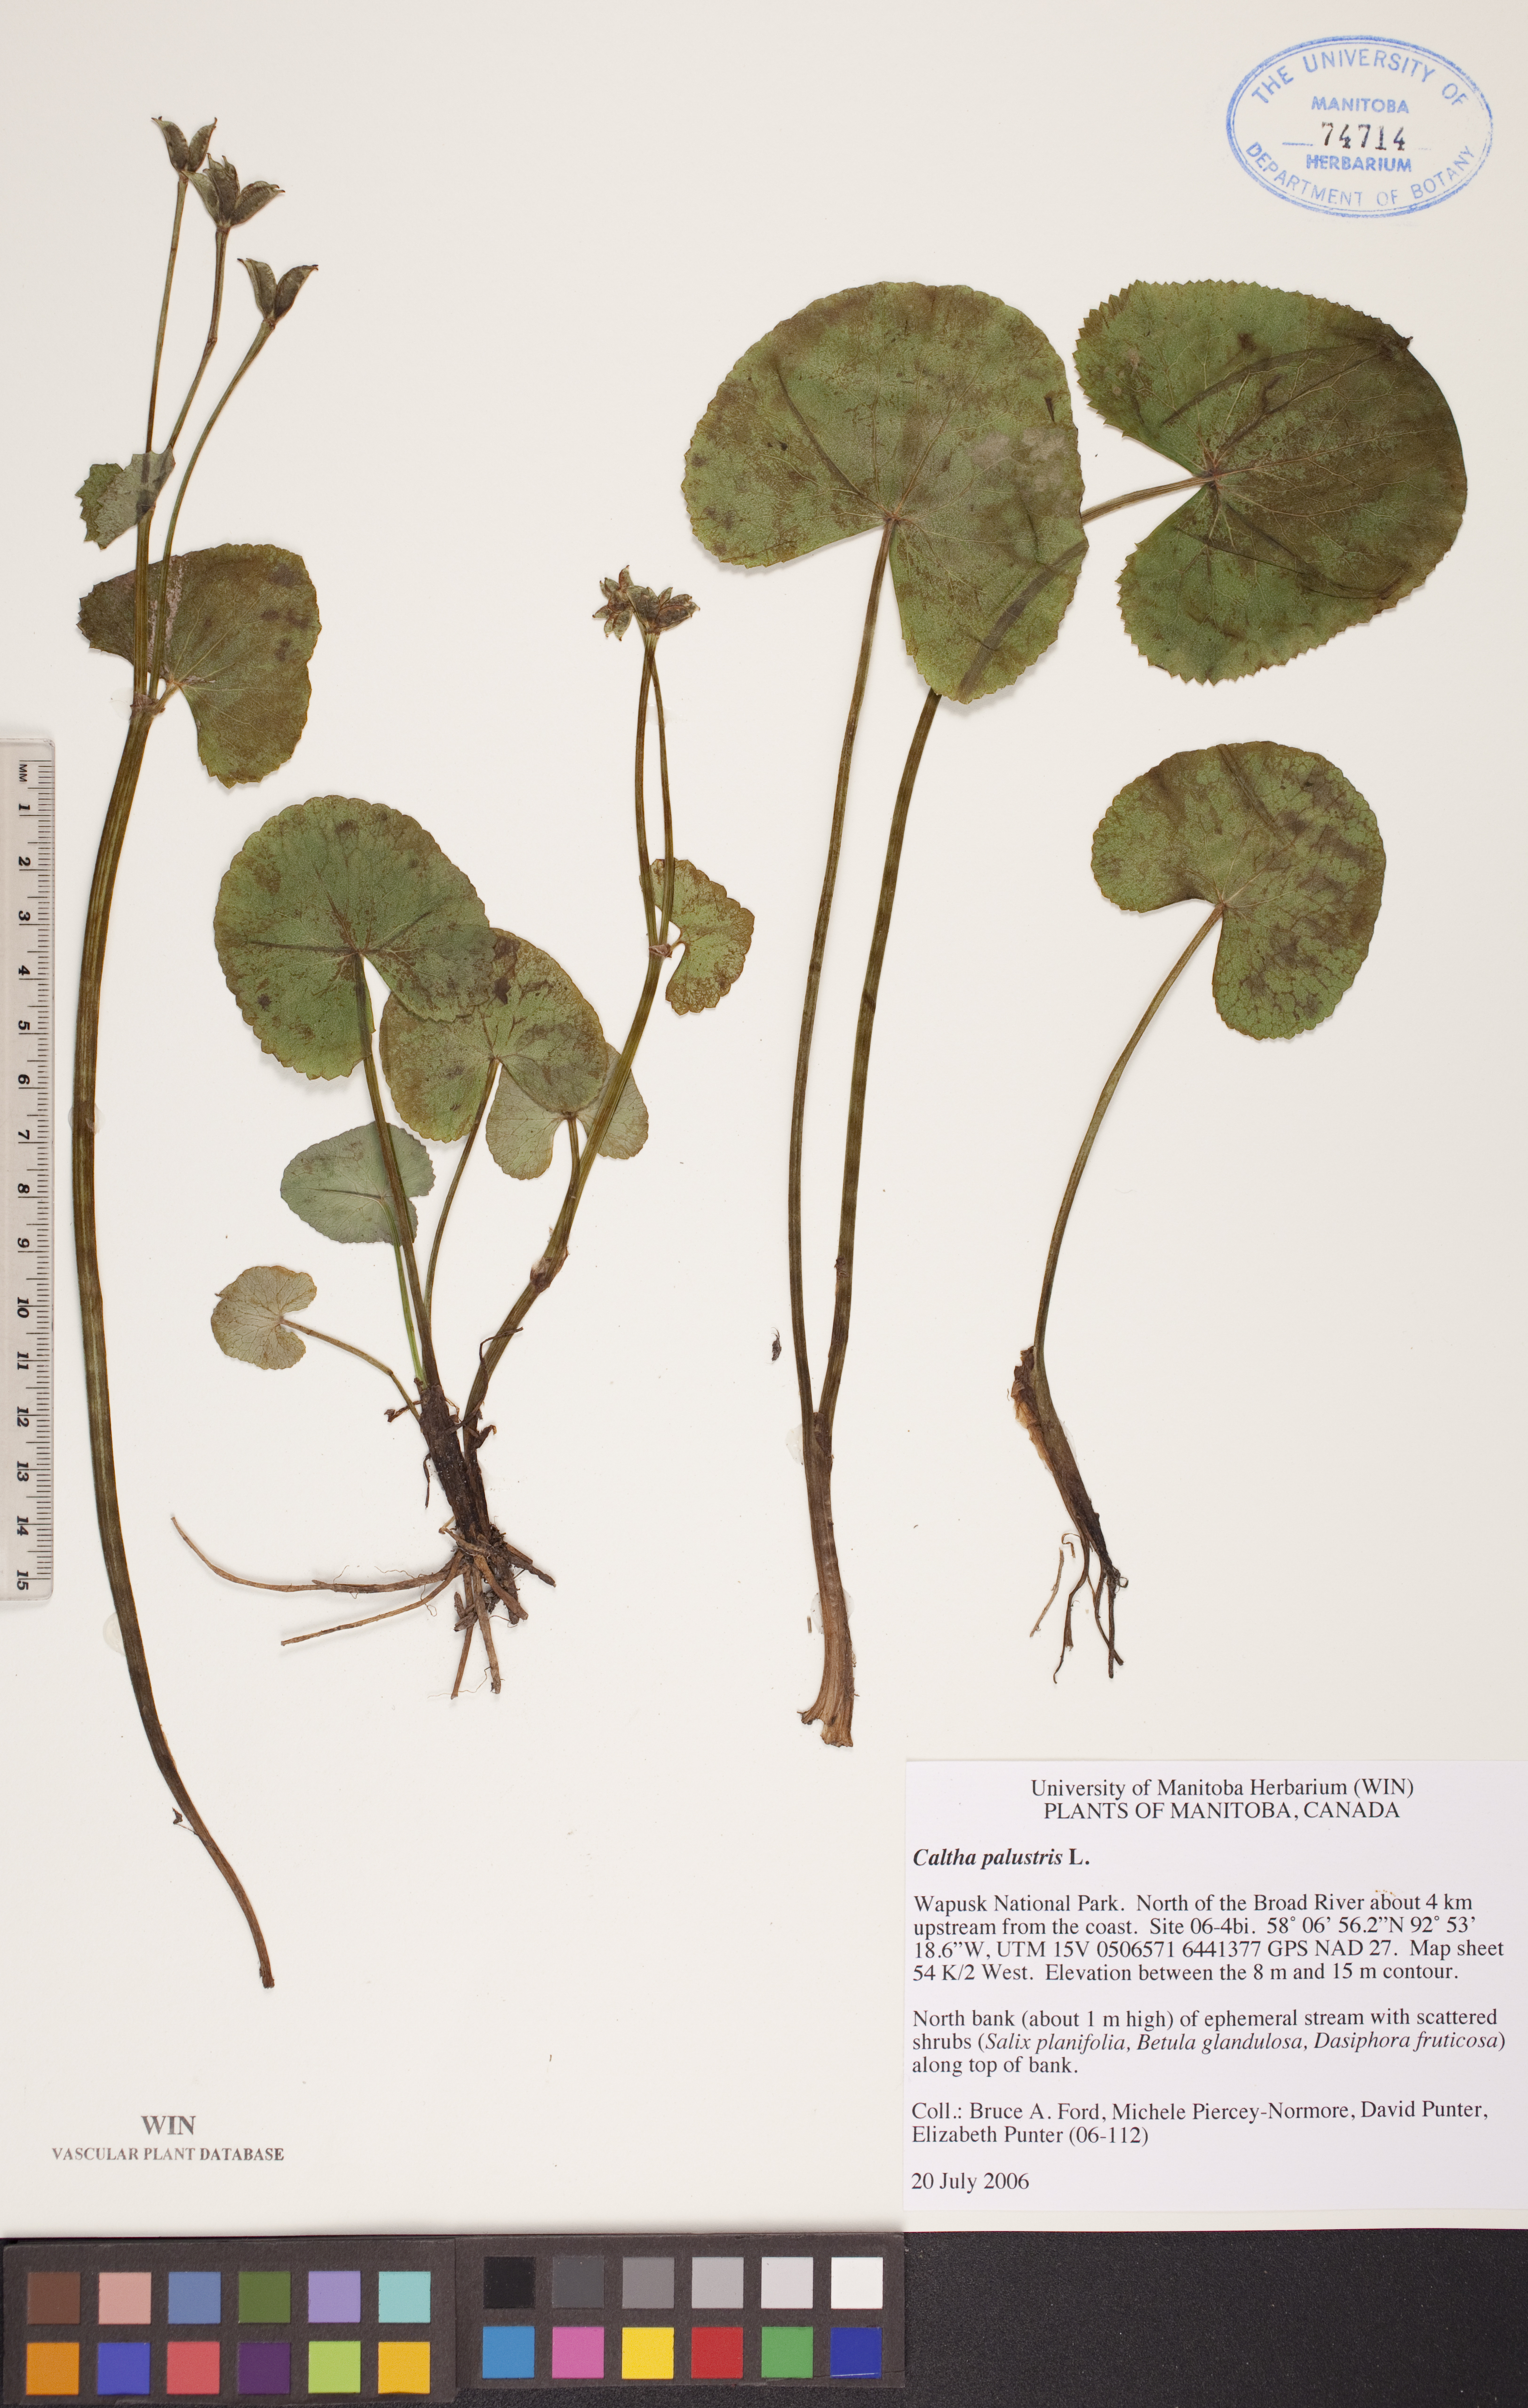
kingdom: Plantae
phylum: Tracheophyta
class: Magnoliopsida
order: Ranunculales
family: Ranunculaceae
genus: Caltha
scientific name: Caltha palustris
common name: Marsh marigold
